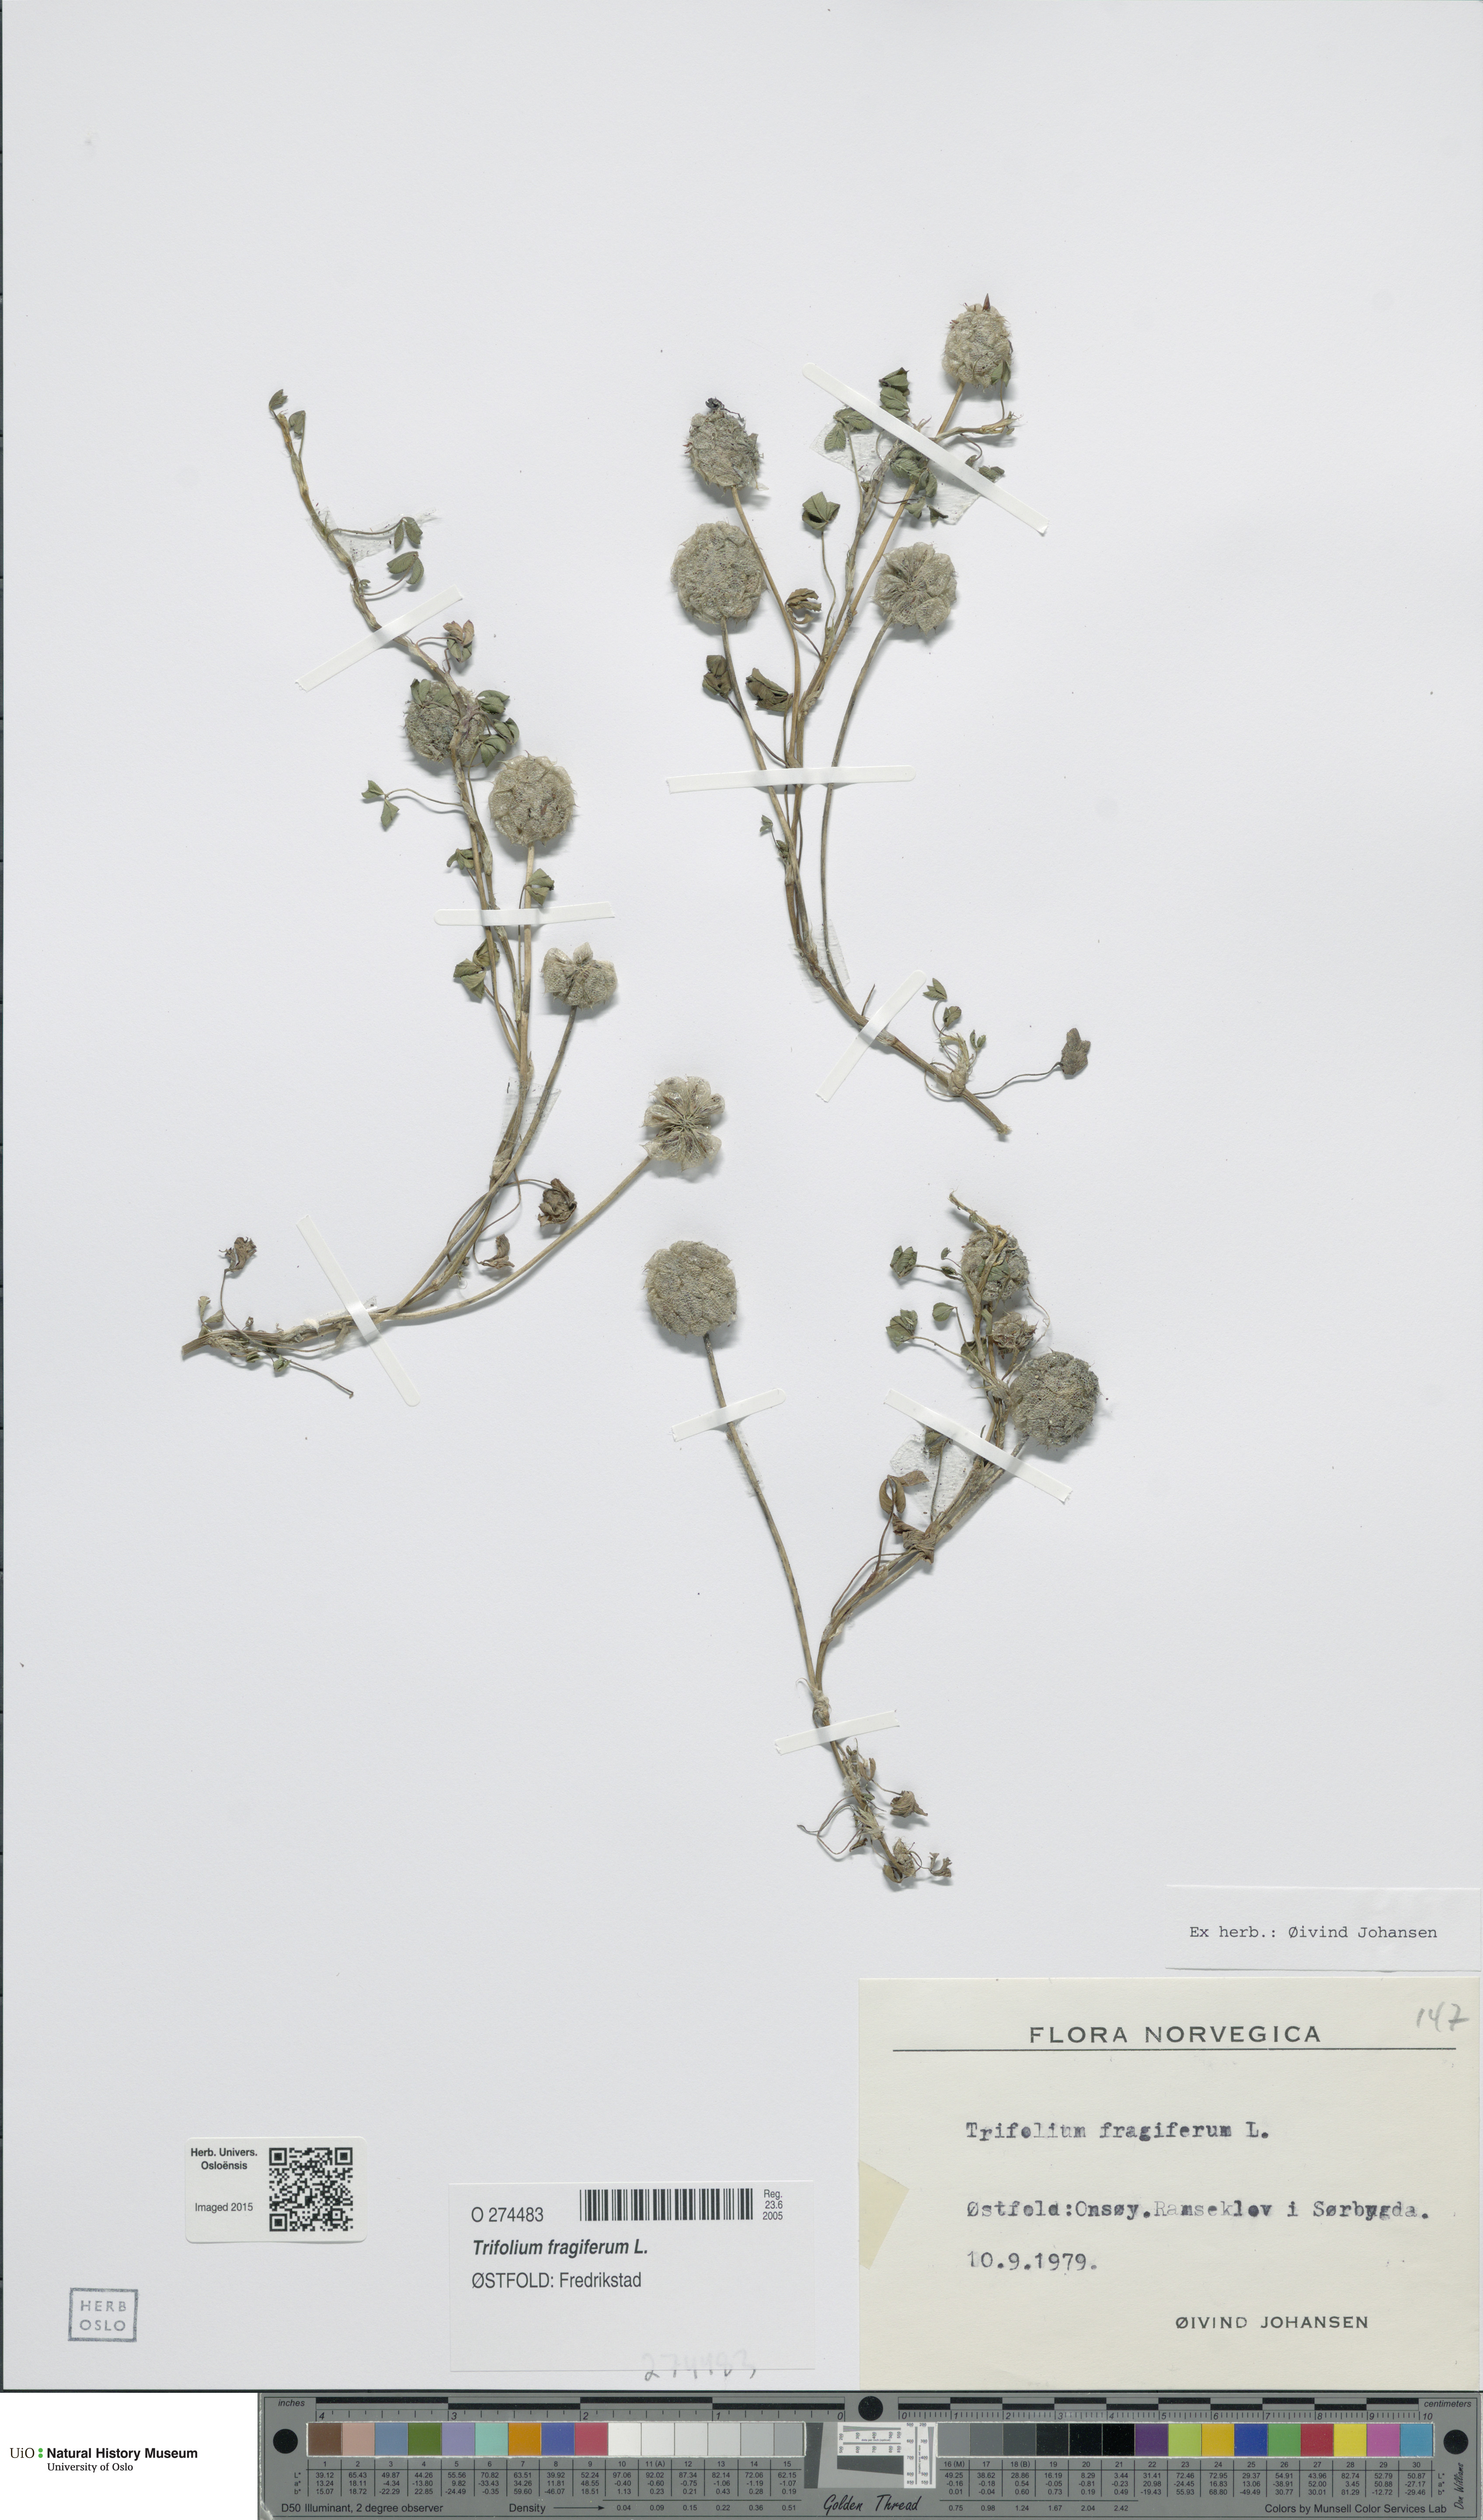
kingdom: Plantae
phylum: Tracheophyta
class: Magnoliopsida
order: Fabales
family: Fabaceae
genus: Trifolium
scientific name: Trifolium fragiferum
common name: Strawberry clover
